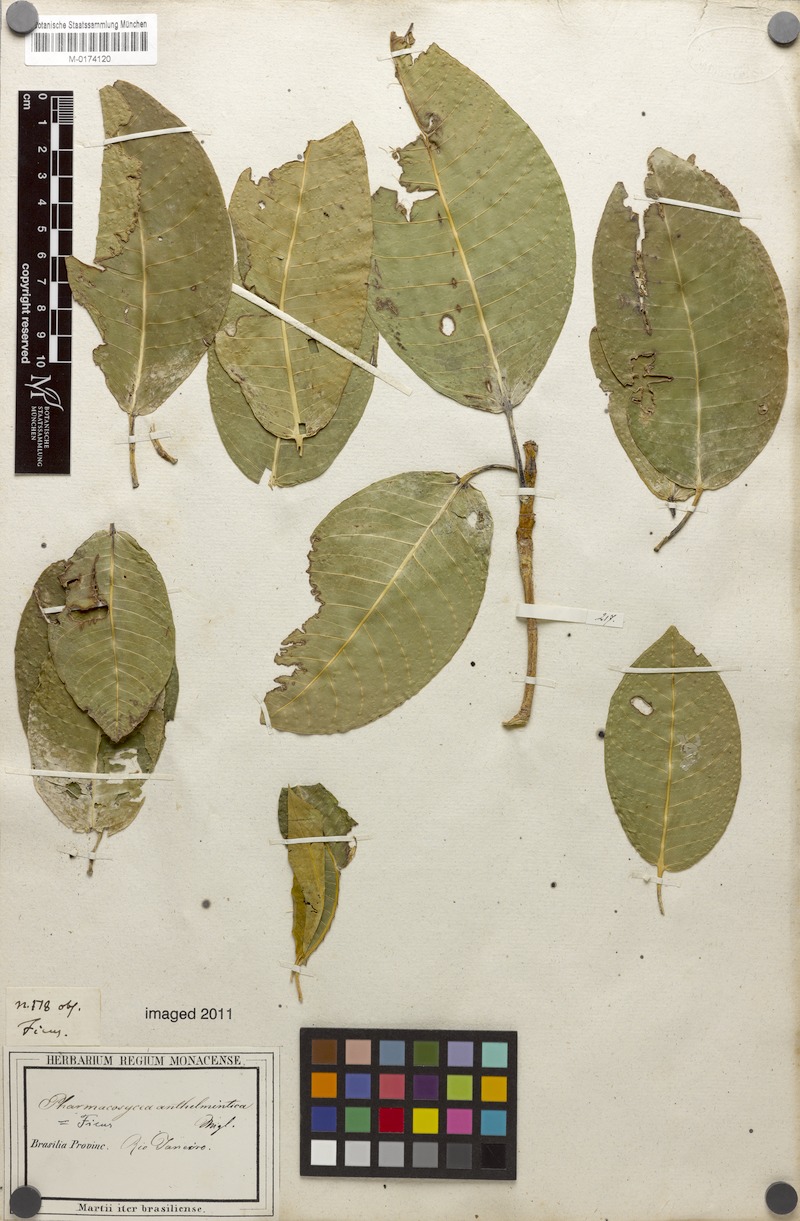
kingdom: Plantae
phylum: Tracheophyta
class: Magnoliopsida
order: Rosales
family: Moraceae
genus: Ficus
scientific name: Ficus adhatodifolia
